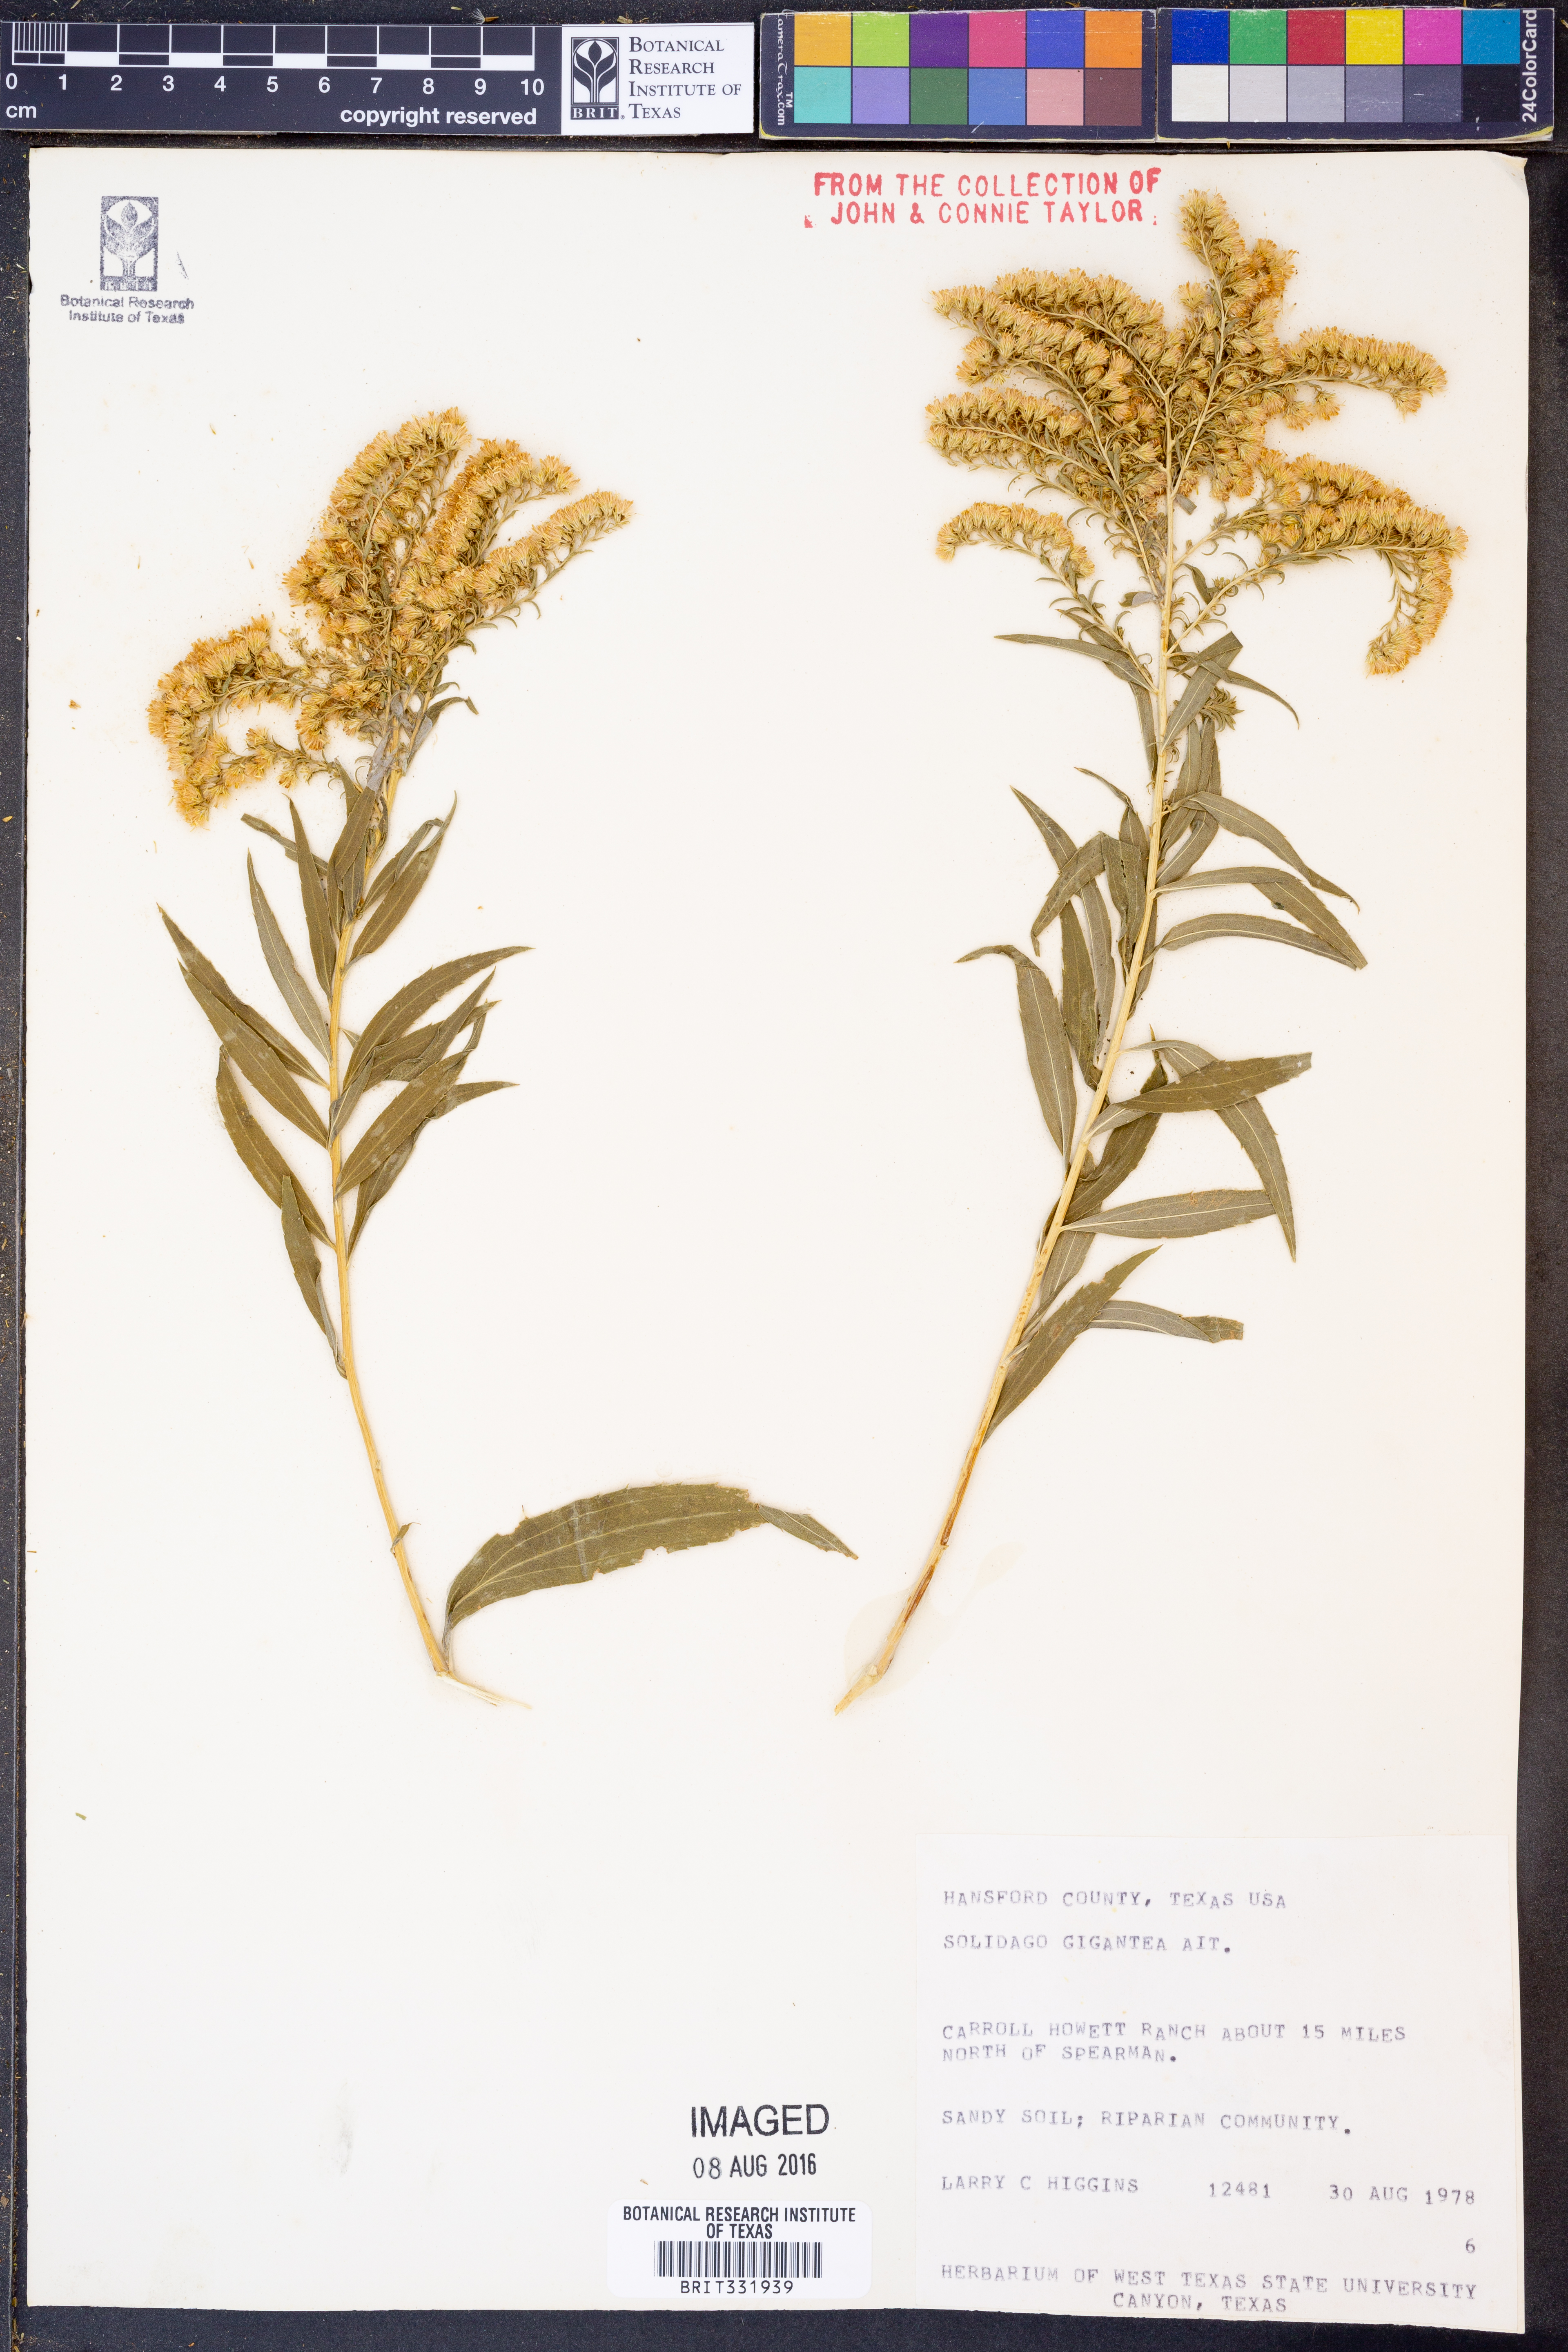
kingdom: Plantae
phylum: Tracheophyta
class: Magnoliopsida
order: Asterales
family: Asteraceae
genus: Solidago
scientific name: Solidago gigantea
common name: Giant goldenrod
